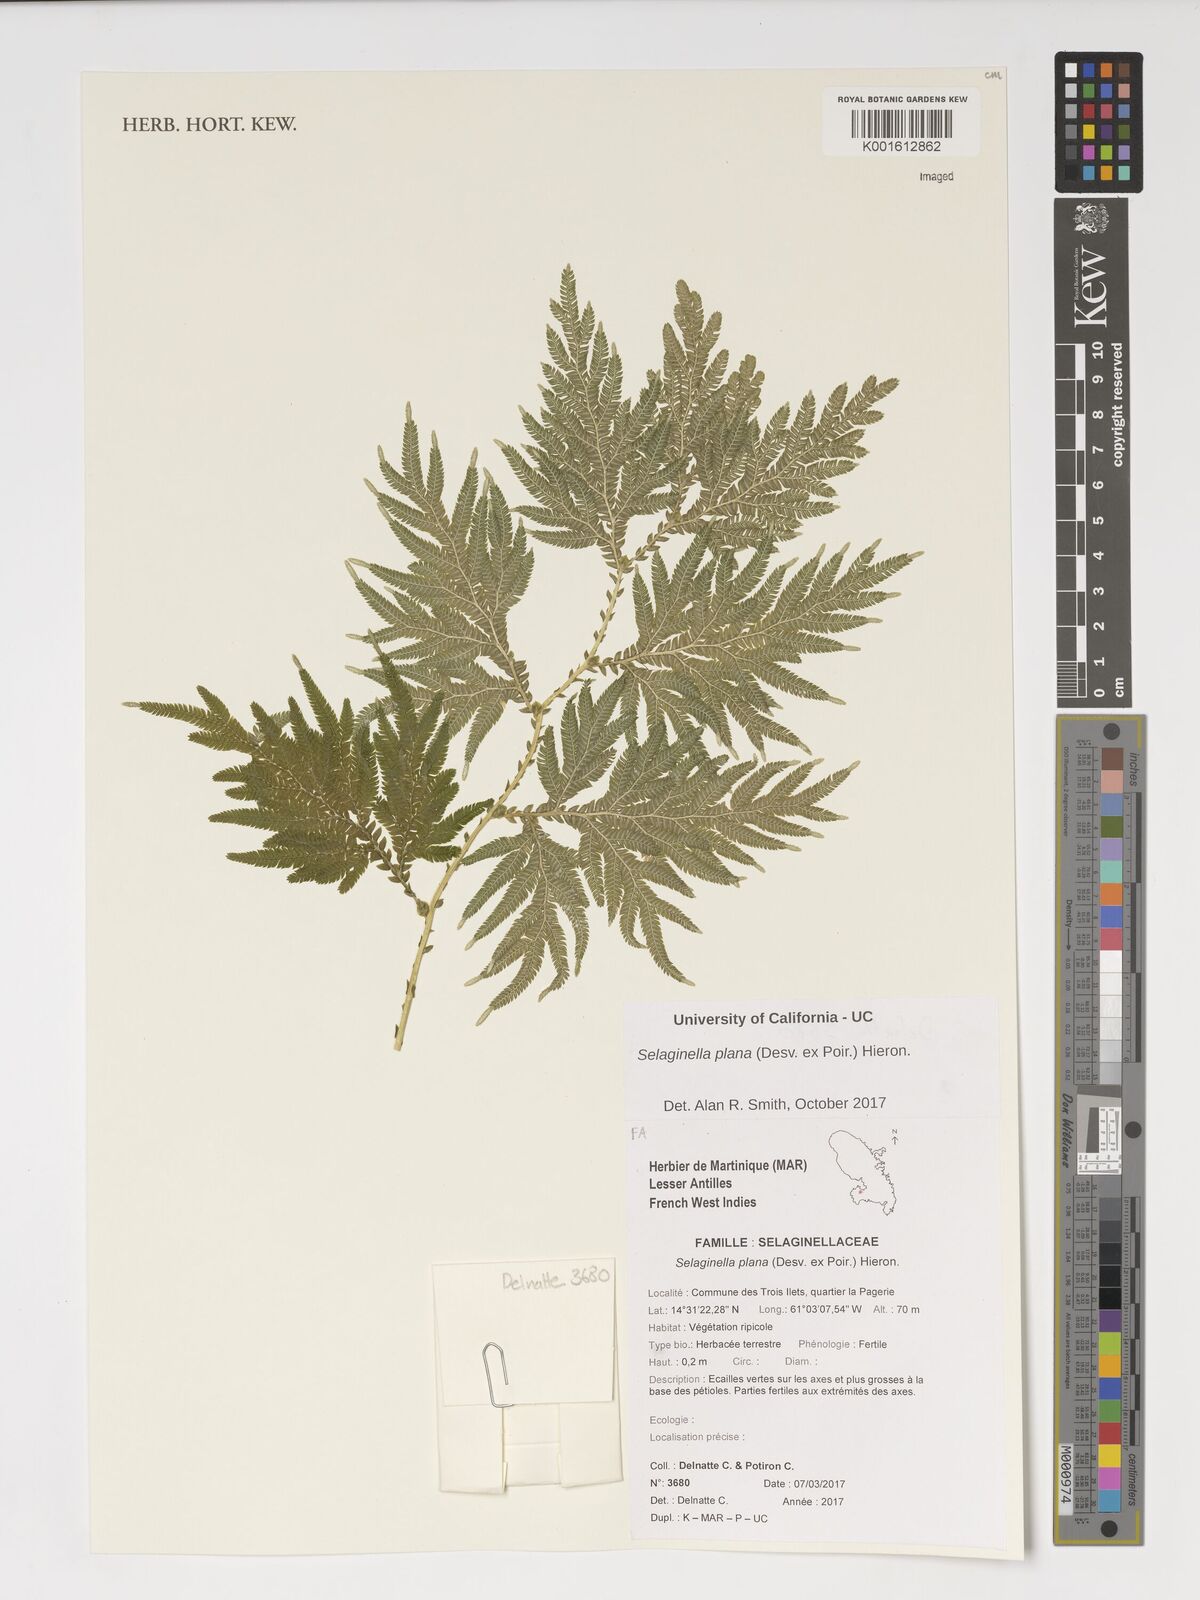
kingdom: Plantae
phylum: Tracheophyta
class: Lycopodiopsida
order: Selaginellales
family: Selaginellaceae
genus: Selaginella
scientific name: Selaginella plana
